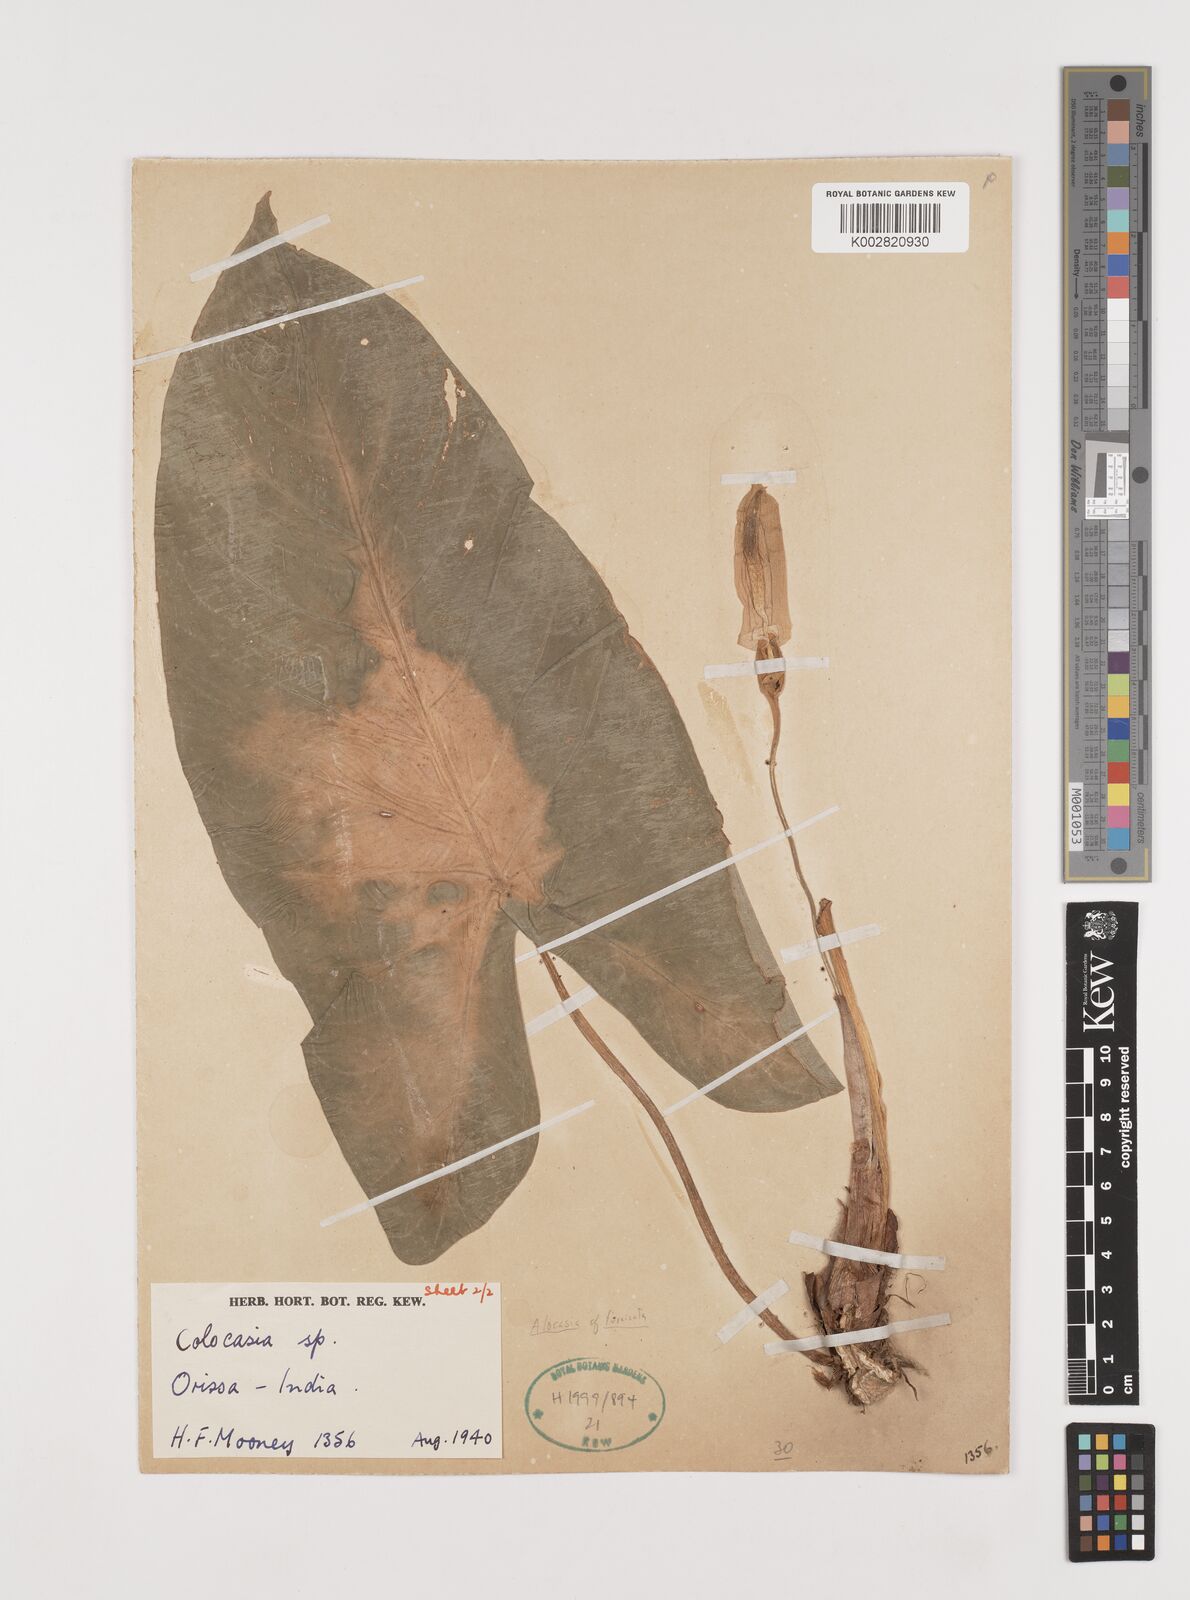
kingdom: Plantae
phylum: Tracheophyta
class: Liliopsida
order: Alismatales
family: Araceae
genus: Alocasia
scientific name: Alocasia fornicata
